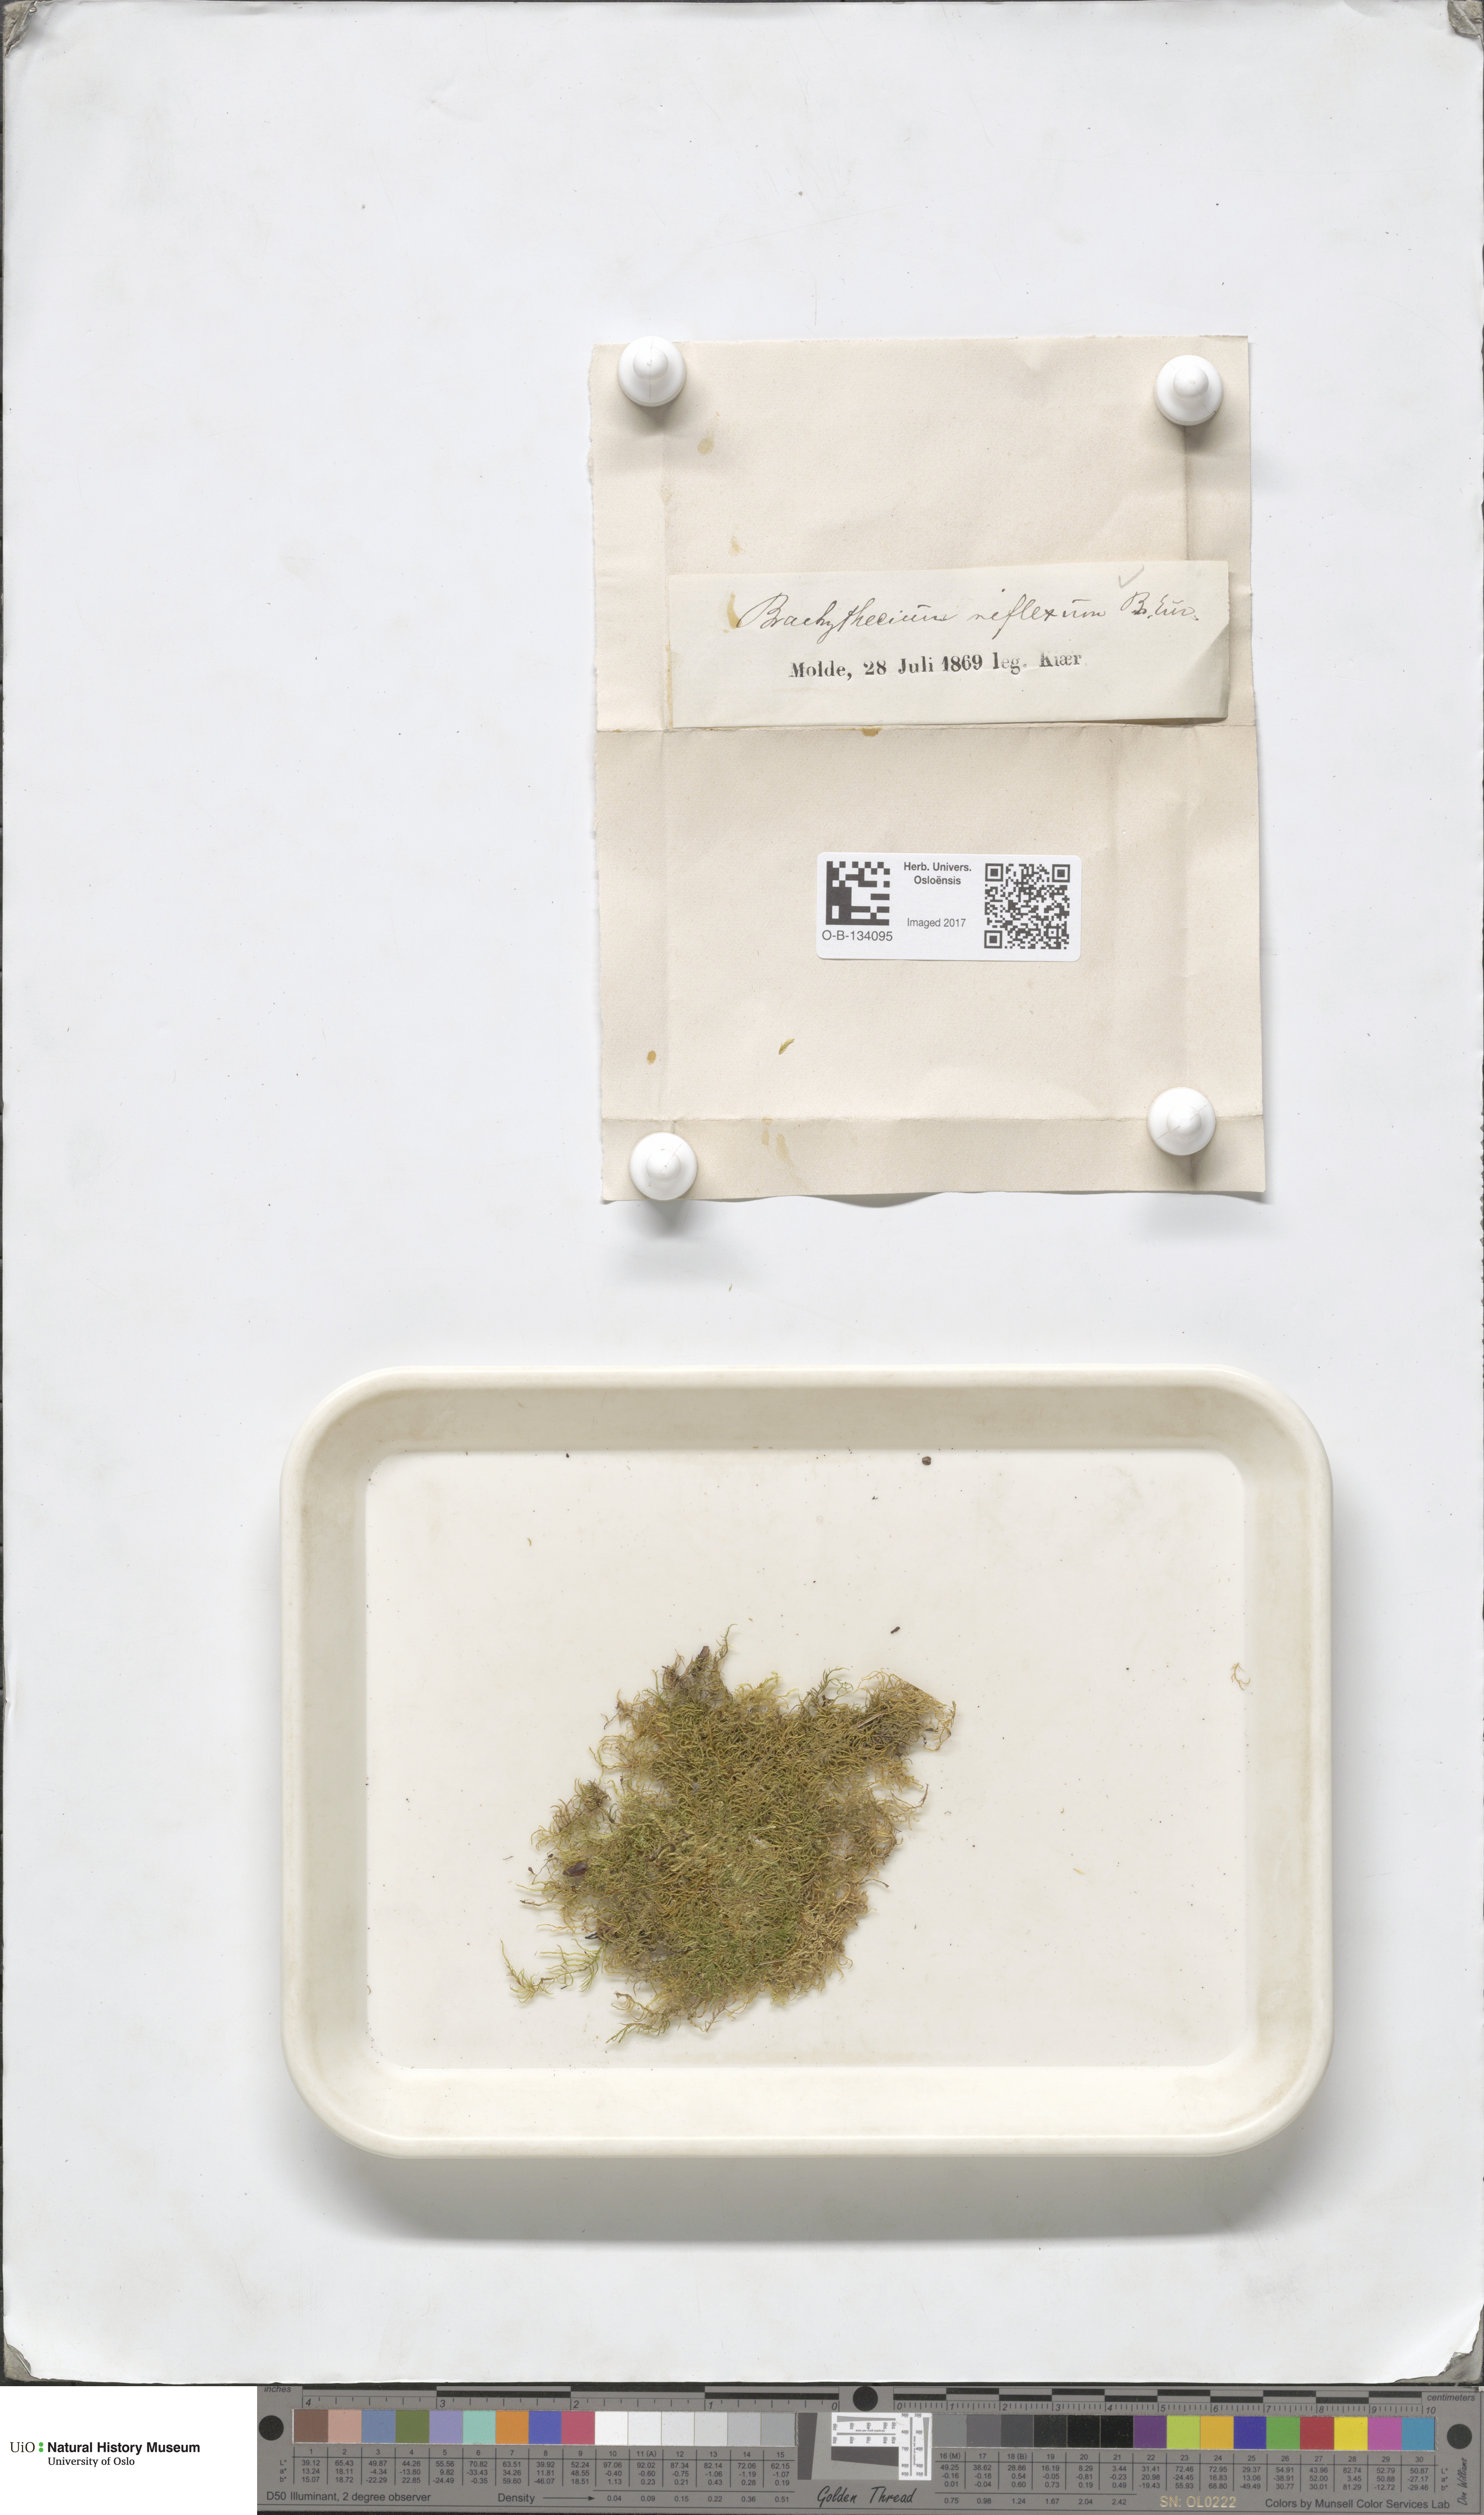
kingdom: Plantae
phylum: Bryophyta
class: Bryopsida
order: Hypnales
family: Brachytheciaceae
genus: Sciuro-hypnum
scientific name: Sciuro-hypnum reflexum
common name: Reflexed feather-moss
